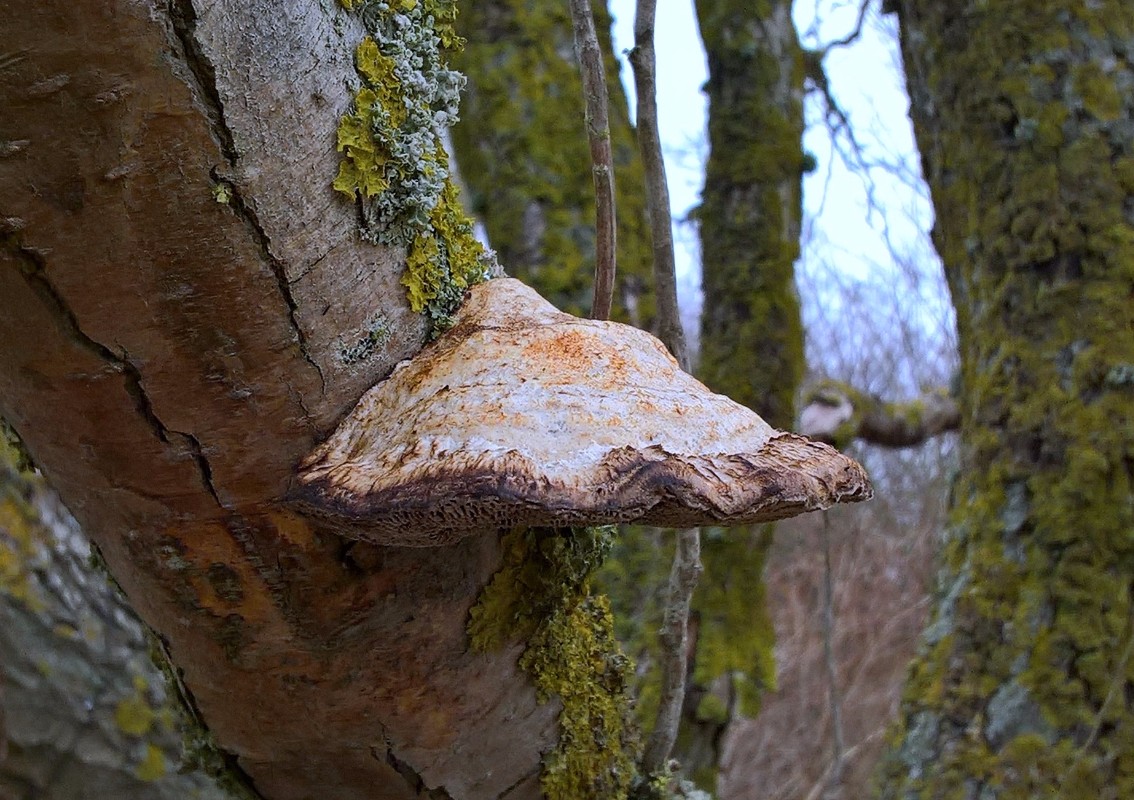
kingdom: Fungi
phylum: Basidiomycota
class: Agaricomycetes
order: Polyporales
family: Polyporaceae
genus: Daedaleopsis
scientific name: Daedaleopsis confragosa
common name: rødmende læderporesvamp
